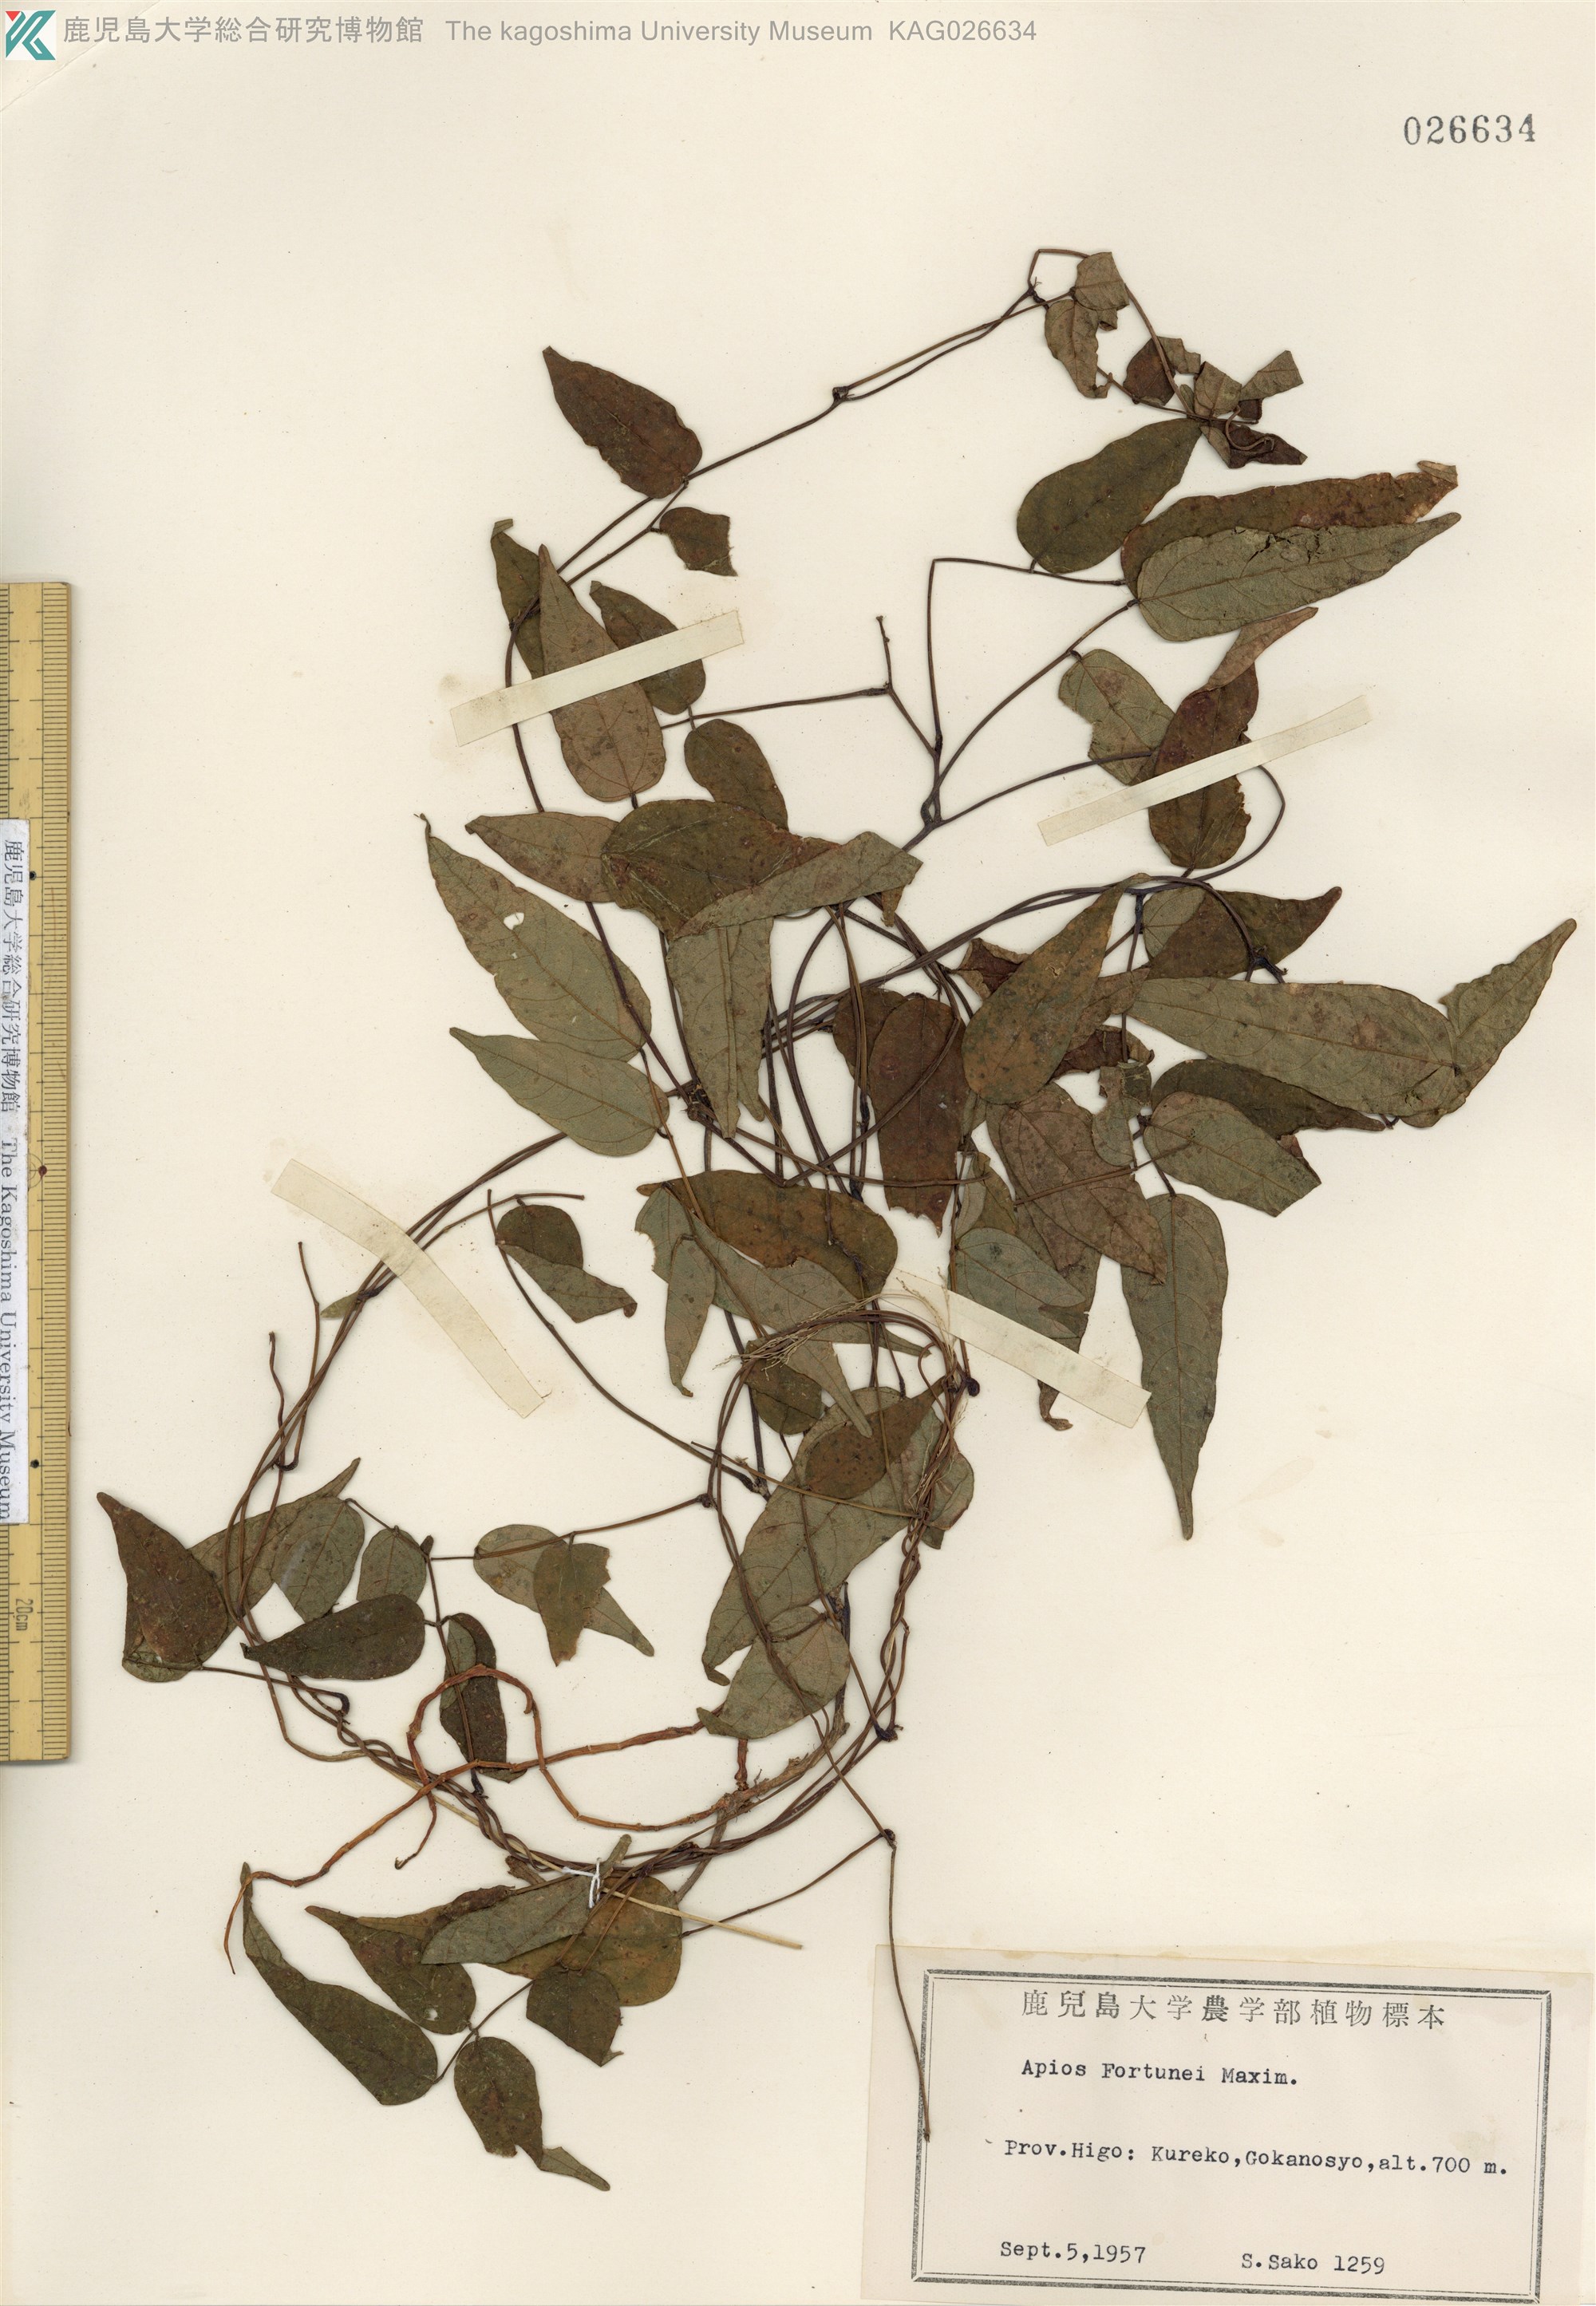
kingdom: Plantae
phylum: Tracheophyta
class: Magnoliopsida
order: Fabales
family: Fabaceae
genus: Apios
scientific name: Apios fortunei
